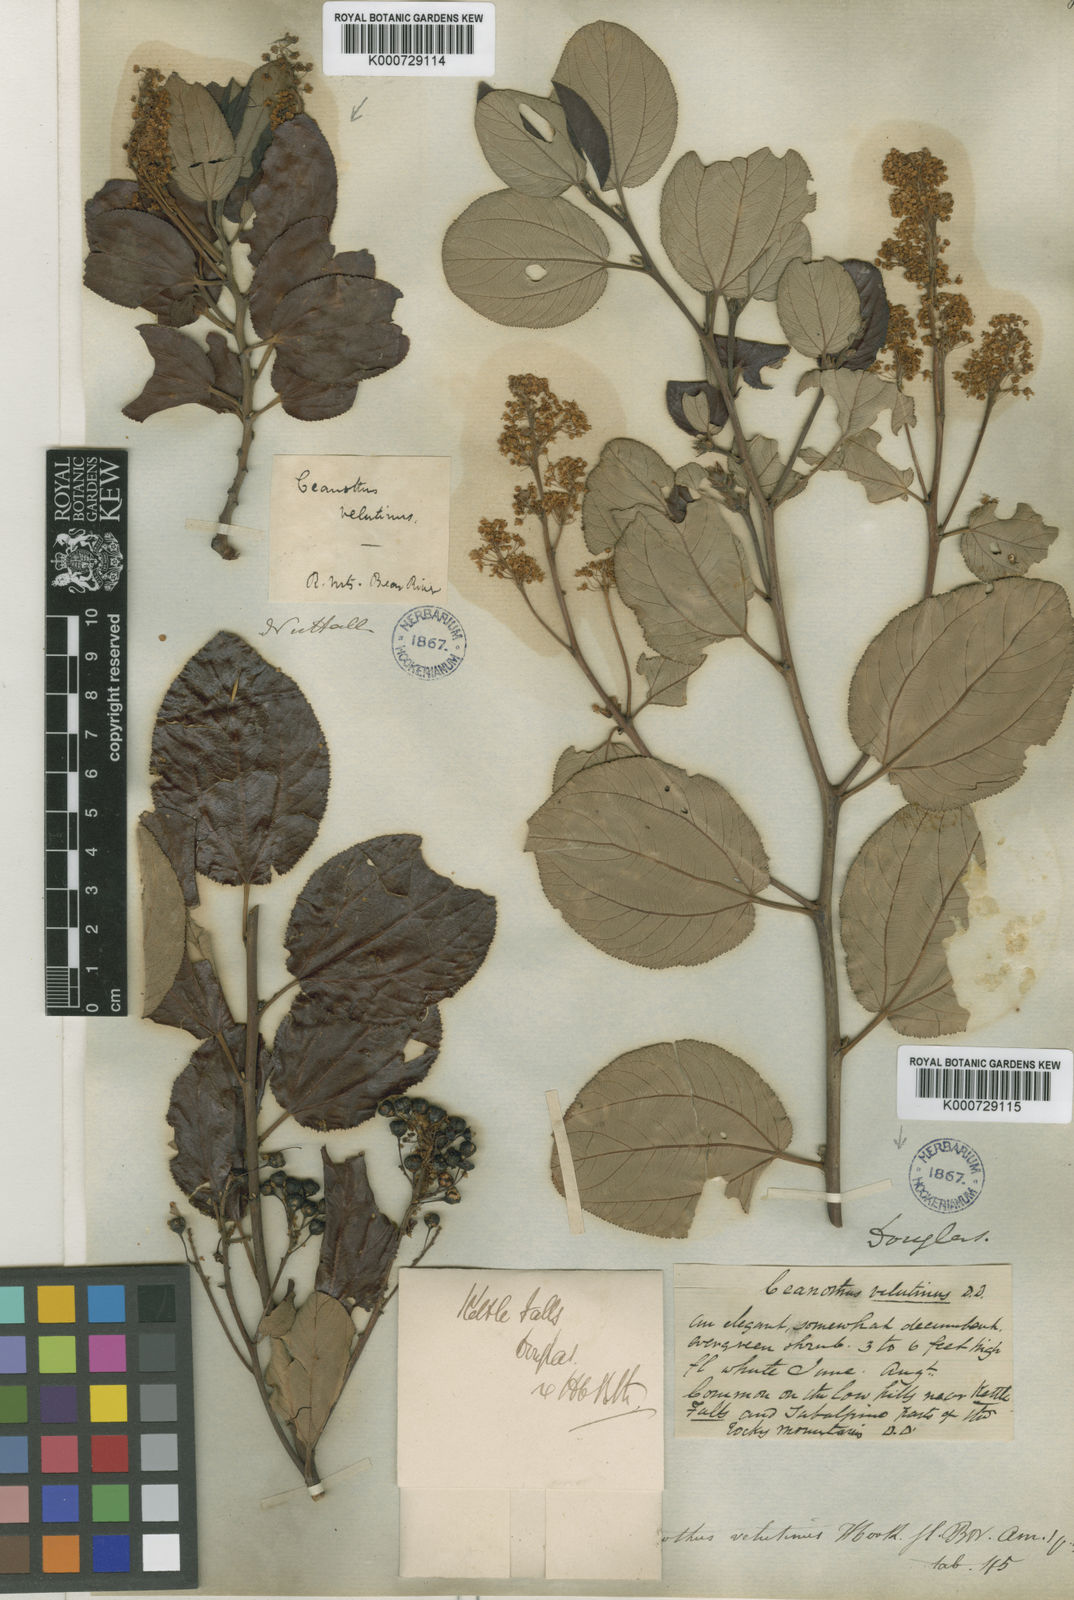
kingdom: Plantae
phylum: Tracheophyta
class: Magnoliopsida
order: Rosales
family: Rhamnaceae
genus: Ceanothus
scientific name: Ceanothus
